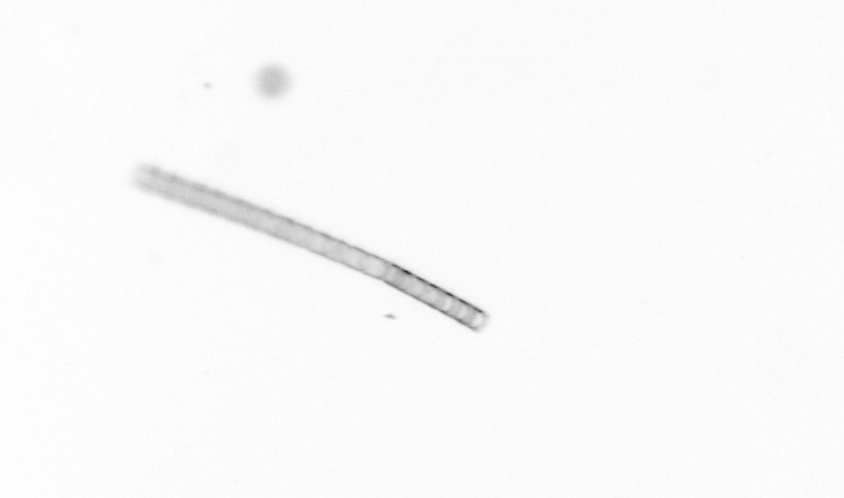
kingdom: Chromista
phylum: Ochrophyta
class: Bacillariophyceae
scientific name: Bacillariophyceae
